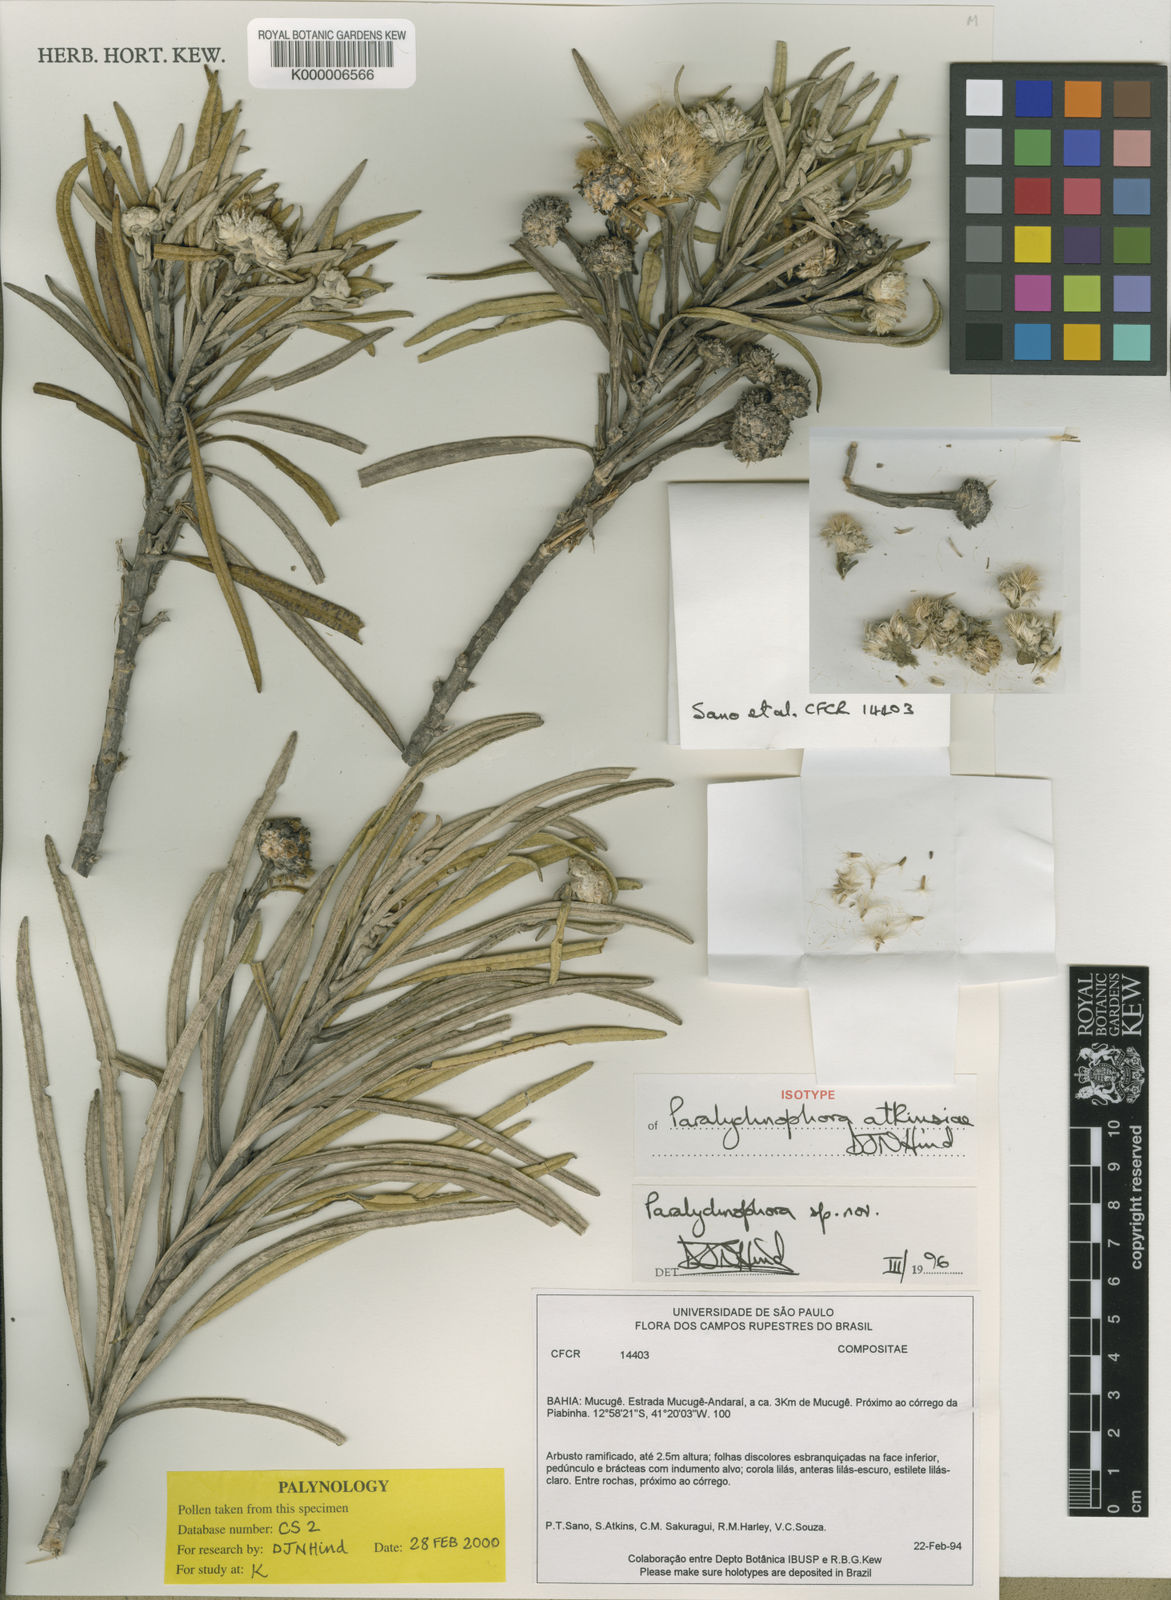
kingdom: Plantae
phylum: Tracheophyta
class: Magnoliopsida
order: Asterales
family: Asteraceae
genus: Paralychnophora
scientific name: Paralychnophora atkinsiae
